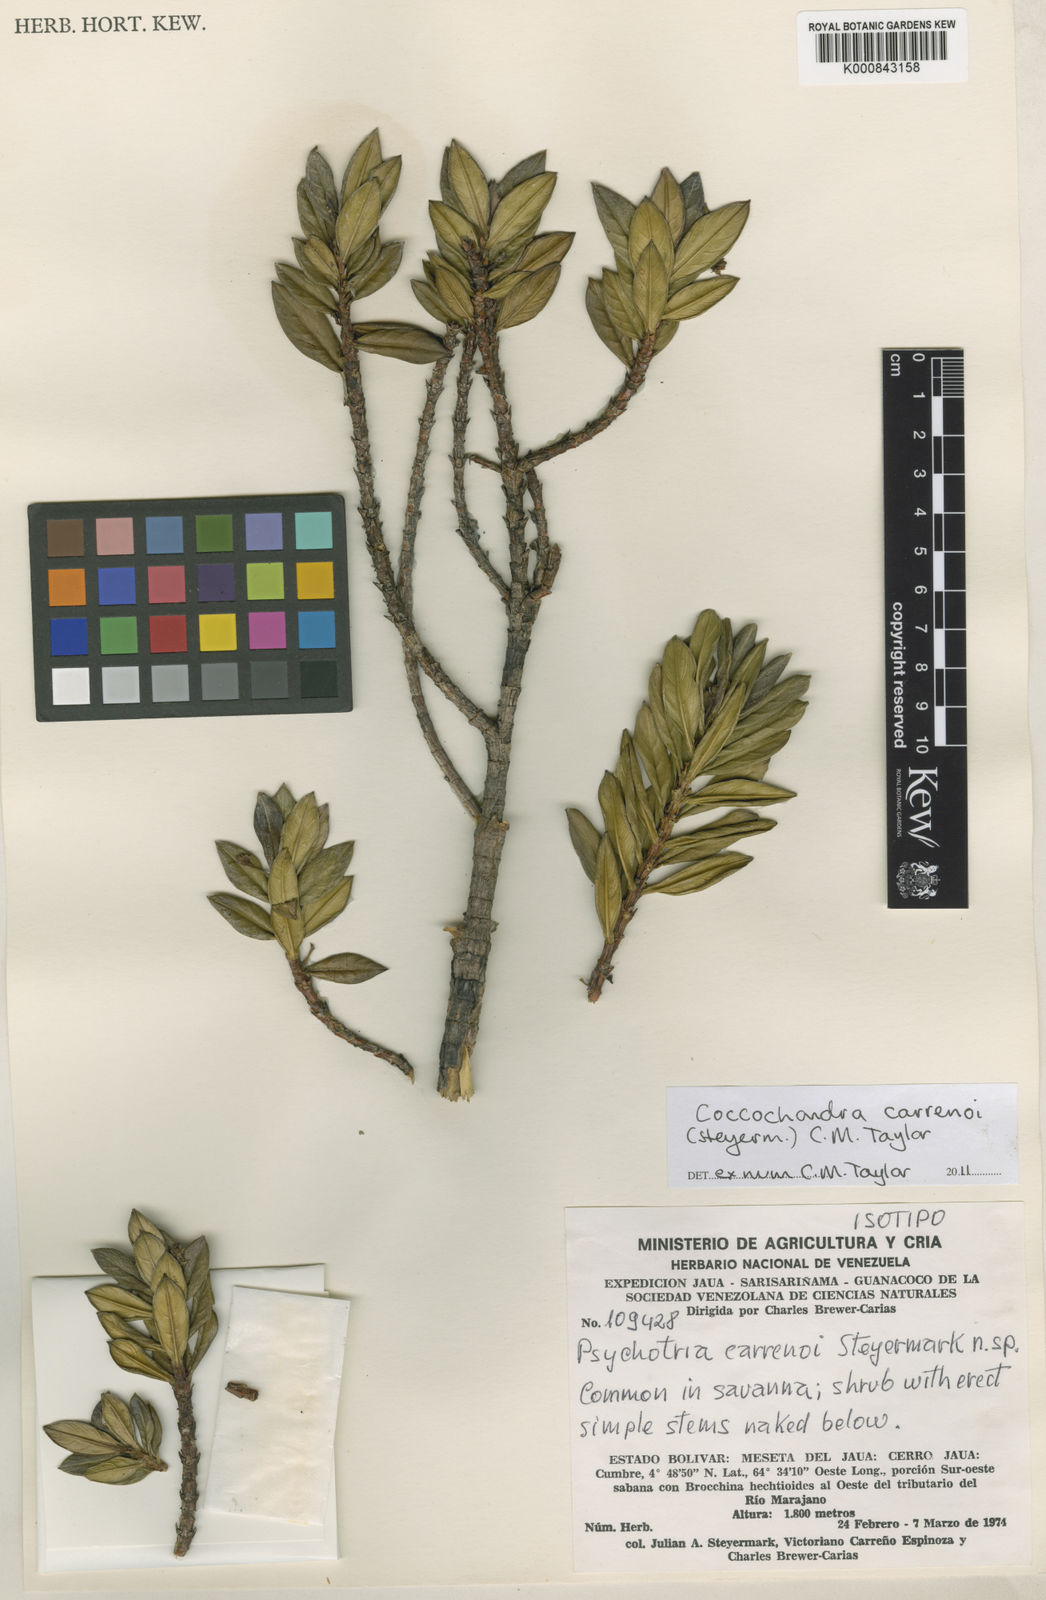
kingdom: Plantae
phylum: Tracheophyta
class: Magnoliopsida
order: Gentianales
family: Rubiaceae
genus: Coccochondra
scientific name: Coccochondra carrenoi
